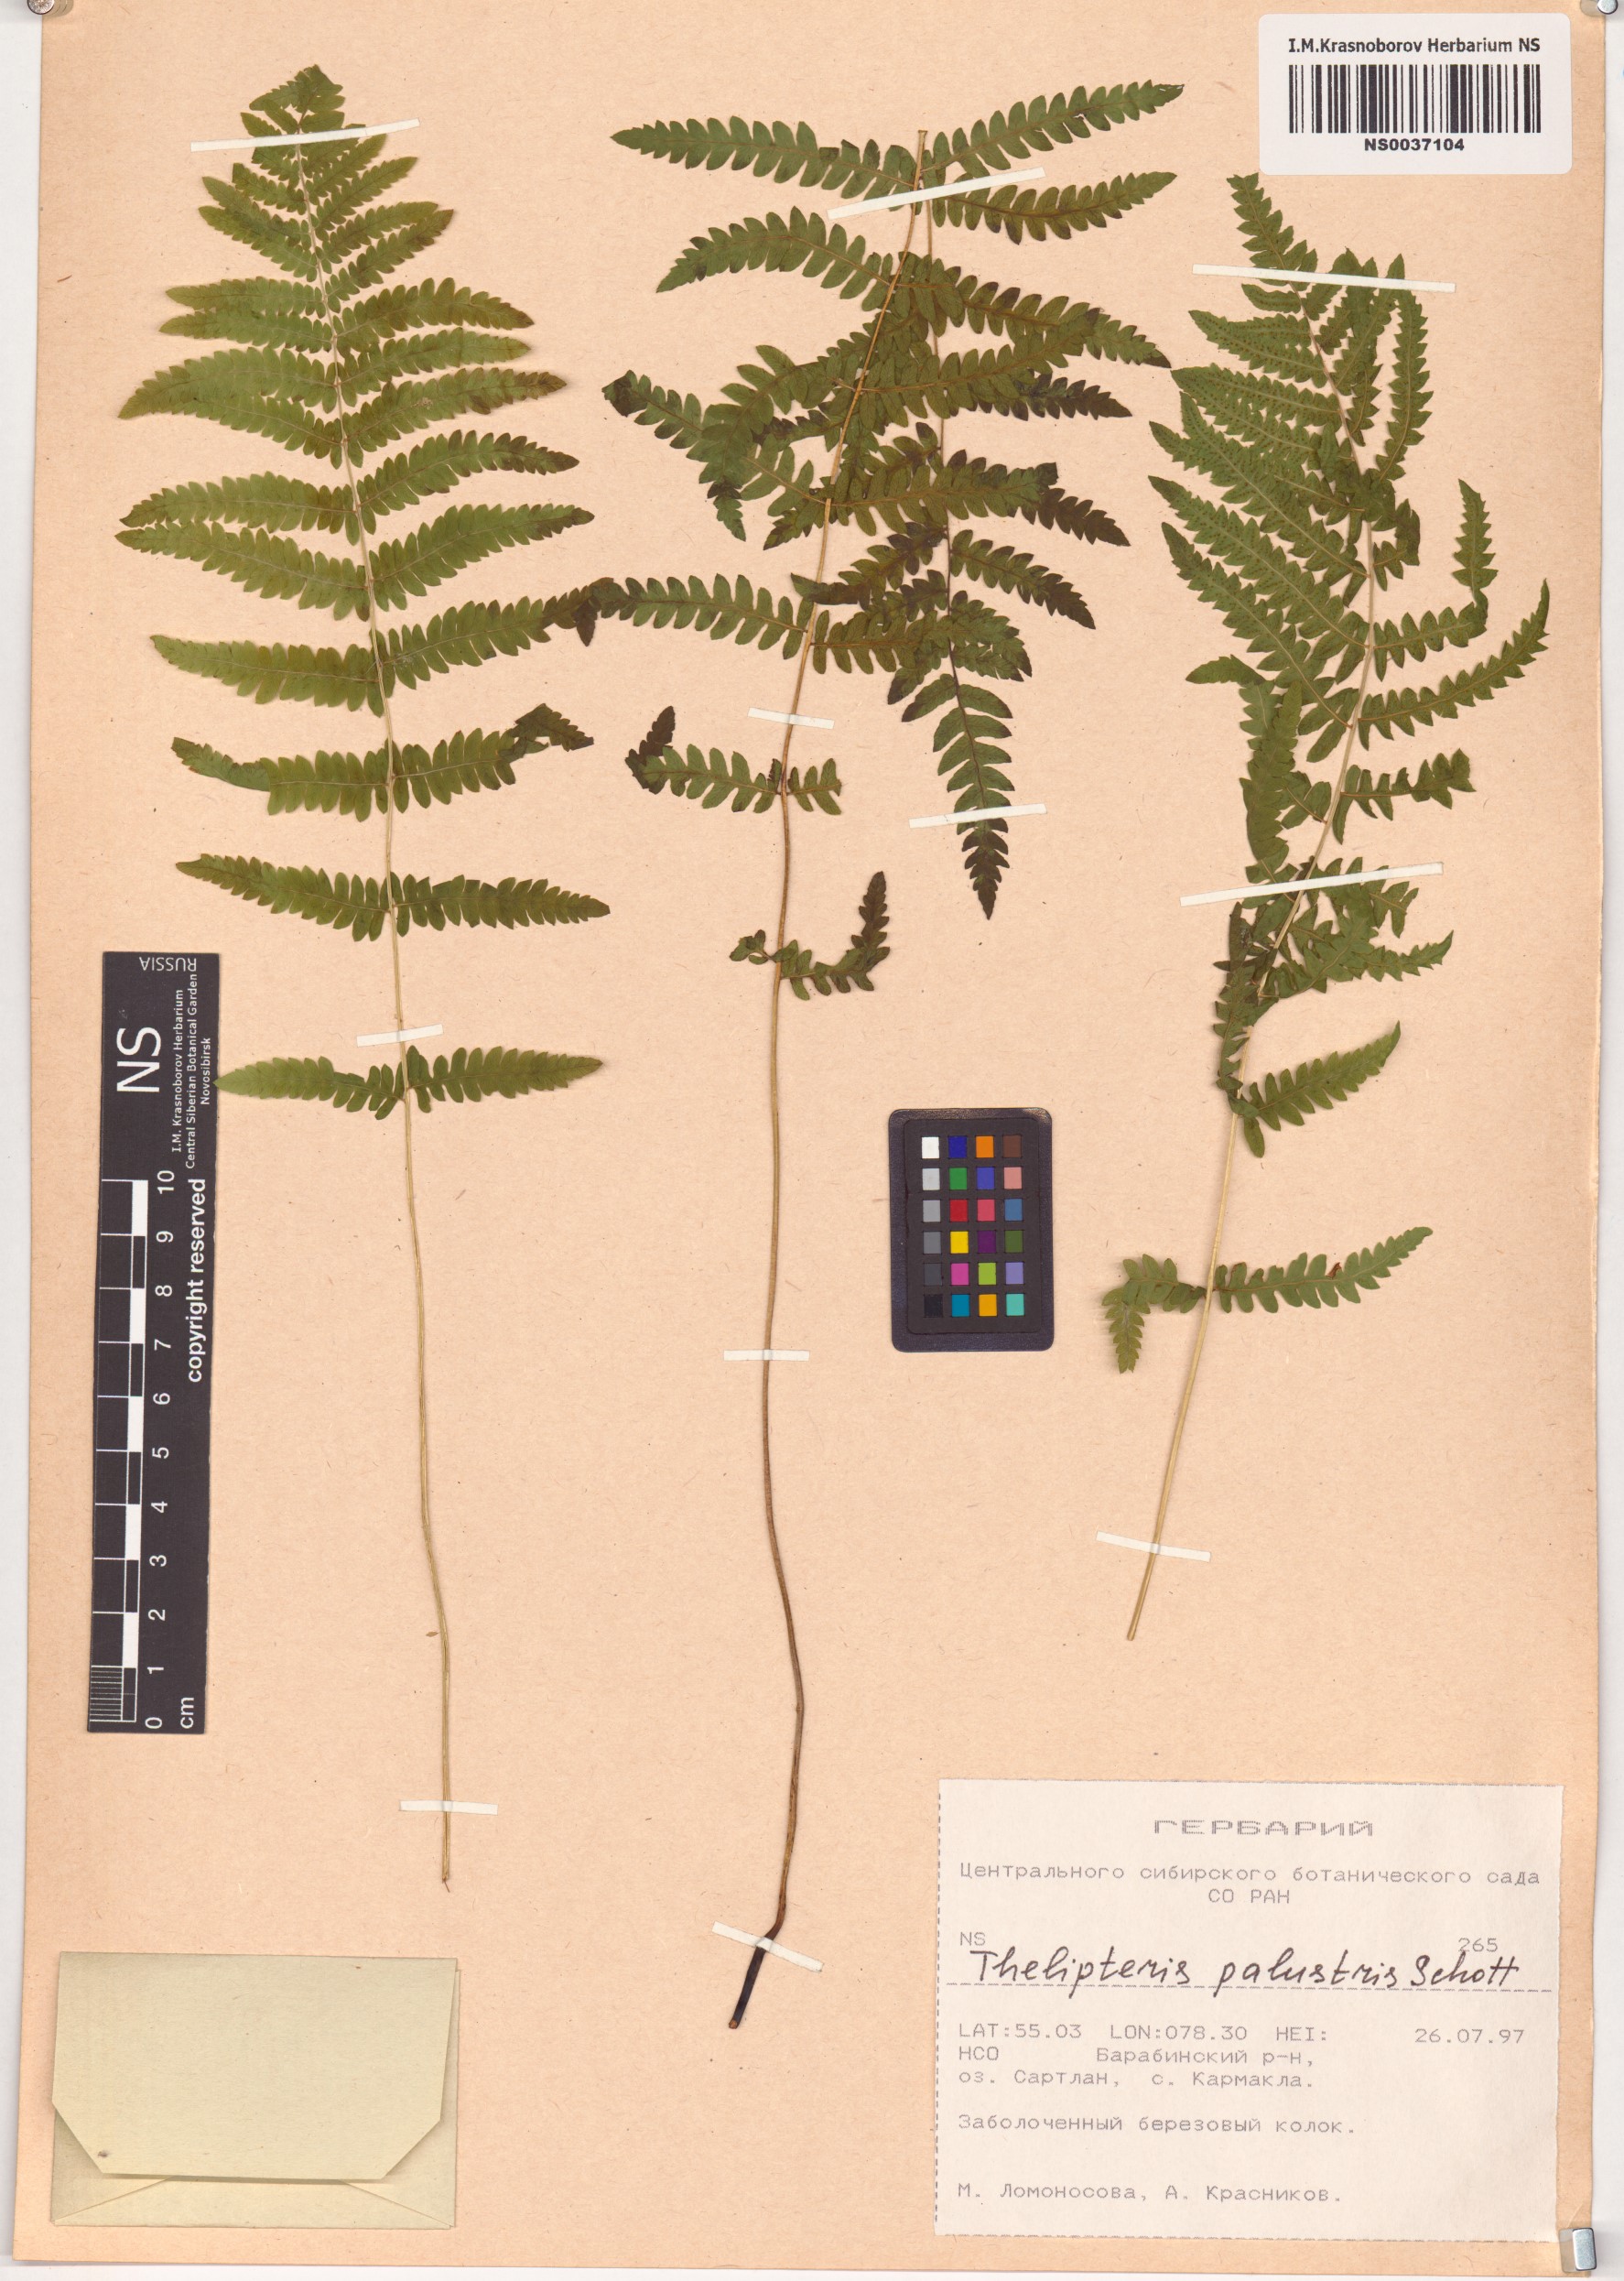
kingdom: Plantae
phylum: Tracheophyta
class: Polypodiopsida
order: Polypodiales
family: Thelypteridaceae
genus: Thelypteris
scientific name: Thelypteris palustris
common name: Marsh fern
